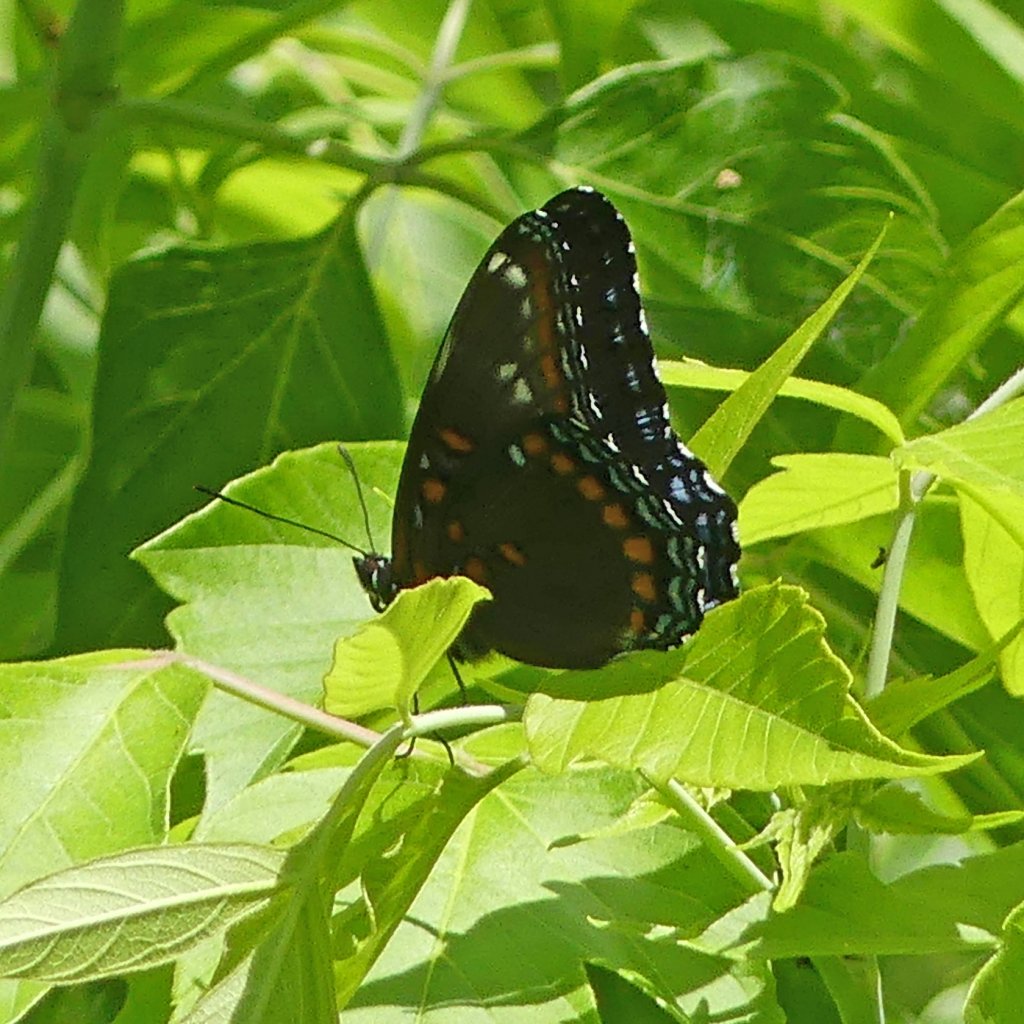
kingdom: Animalia
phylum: Arthropoda
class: Insecta
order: Lepidoptera
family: Nymphalidae
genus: Limenitis
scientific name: Limenitis astyanax
